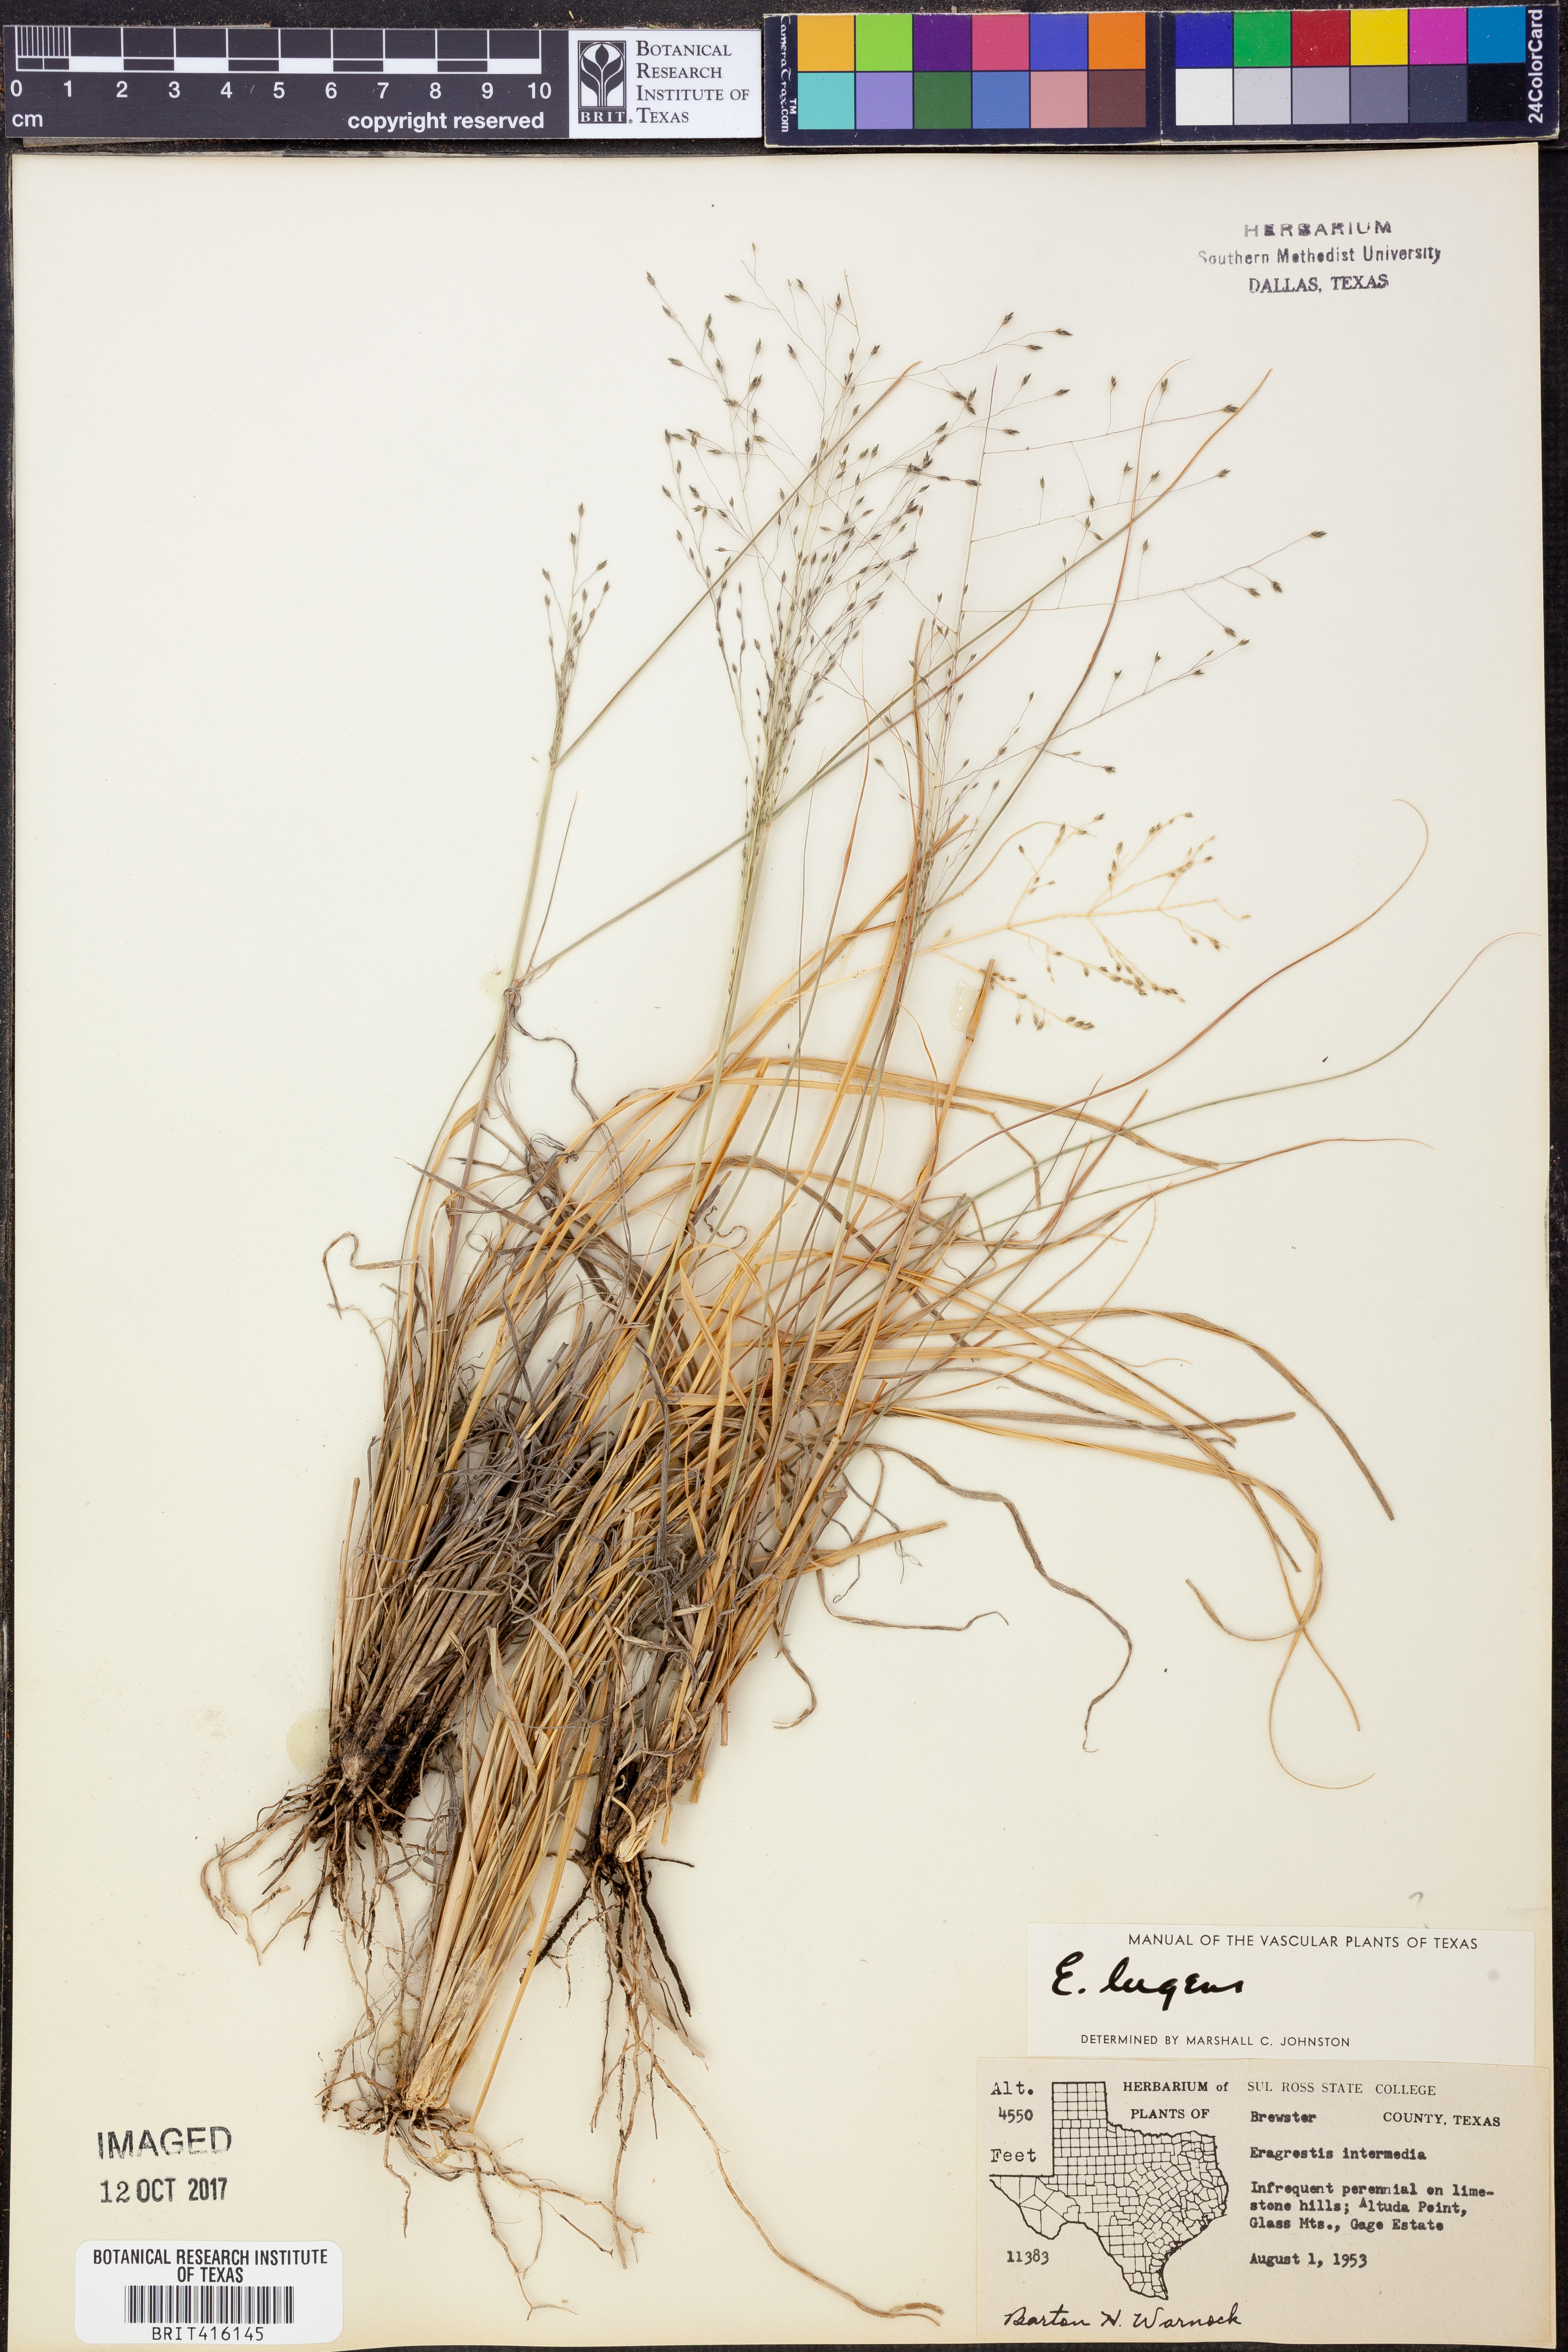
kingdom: Plantae
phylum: Tracheophyta
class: Liliopsida
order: Poales
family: Poaceae
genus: Eragrostis
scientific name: Eragrostis capillaris
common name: Hair-like lovegrass
